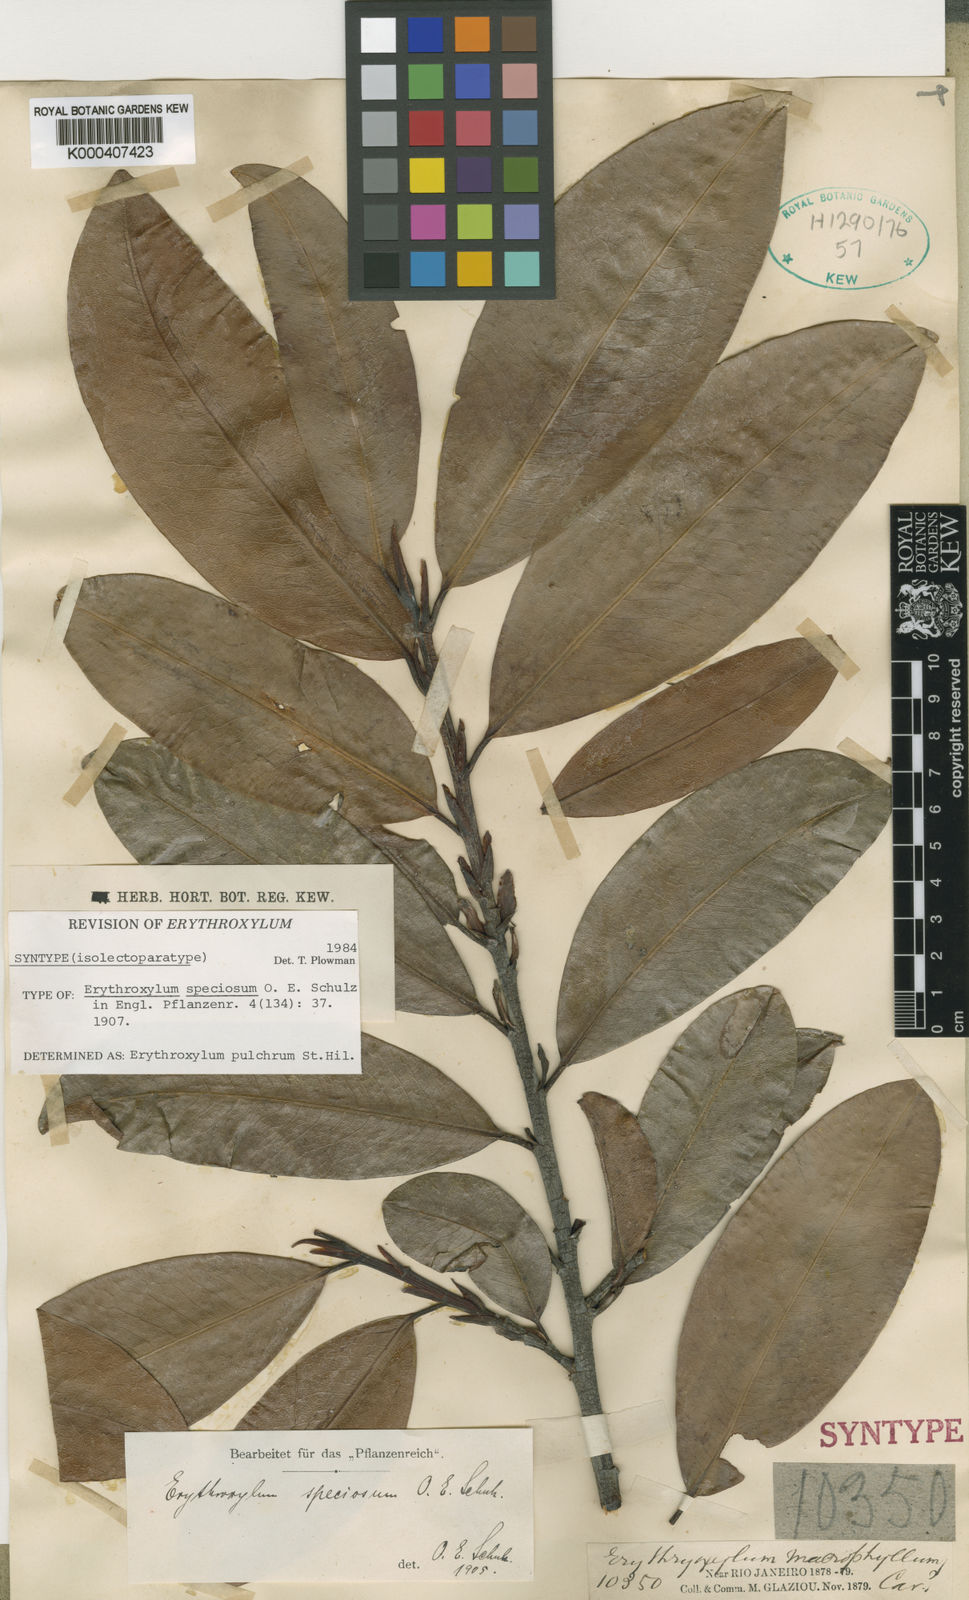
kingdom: Plantae
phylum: Tracheophyta
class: Magnoliopsida
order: Malpighiales
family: Erythroxylaceae
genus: Erythroxylum
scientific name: Erythroxylum pulchrum
